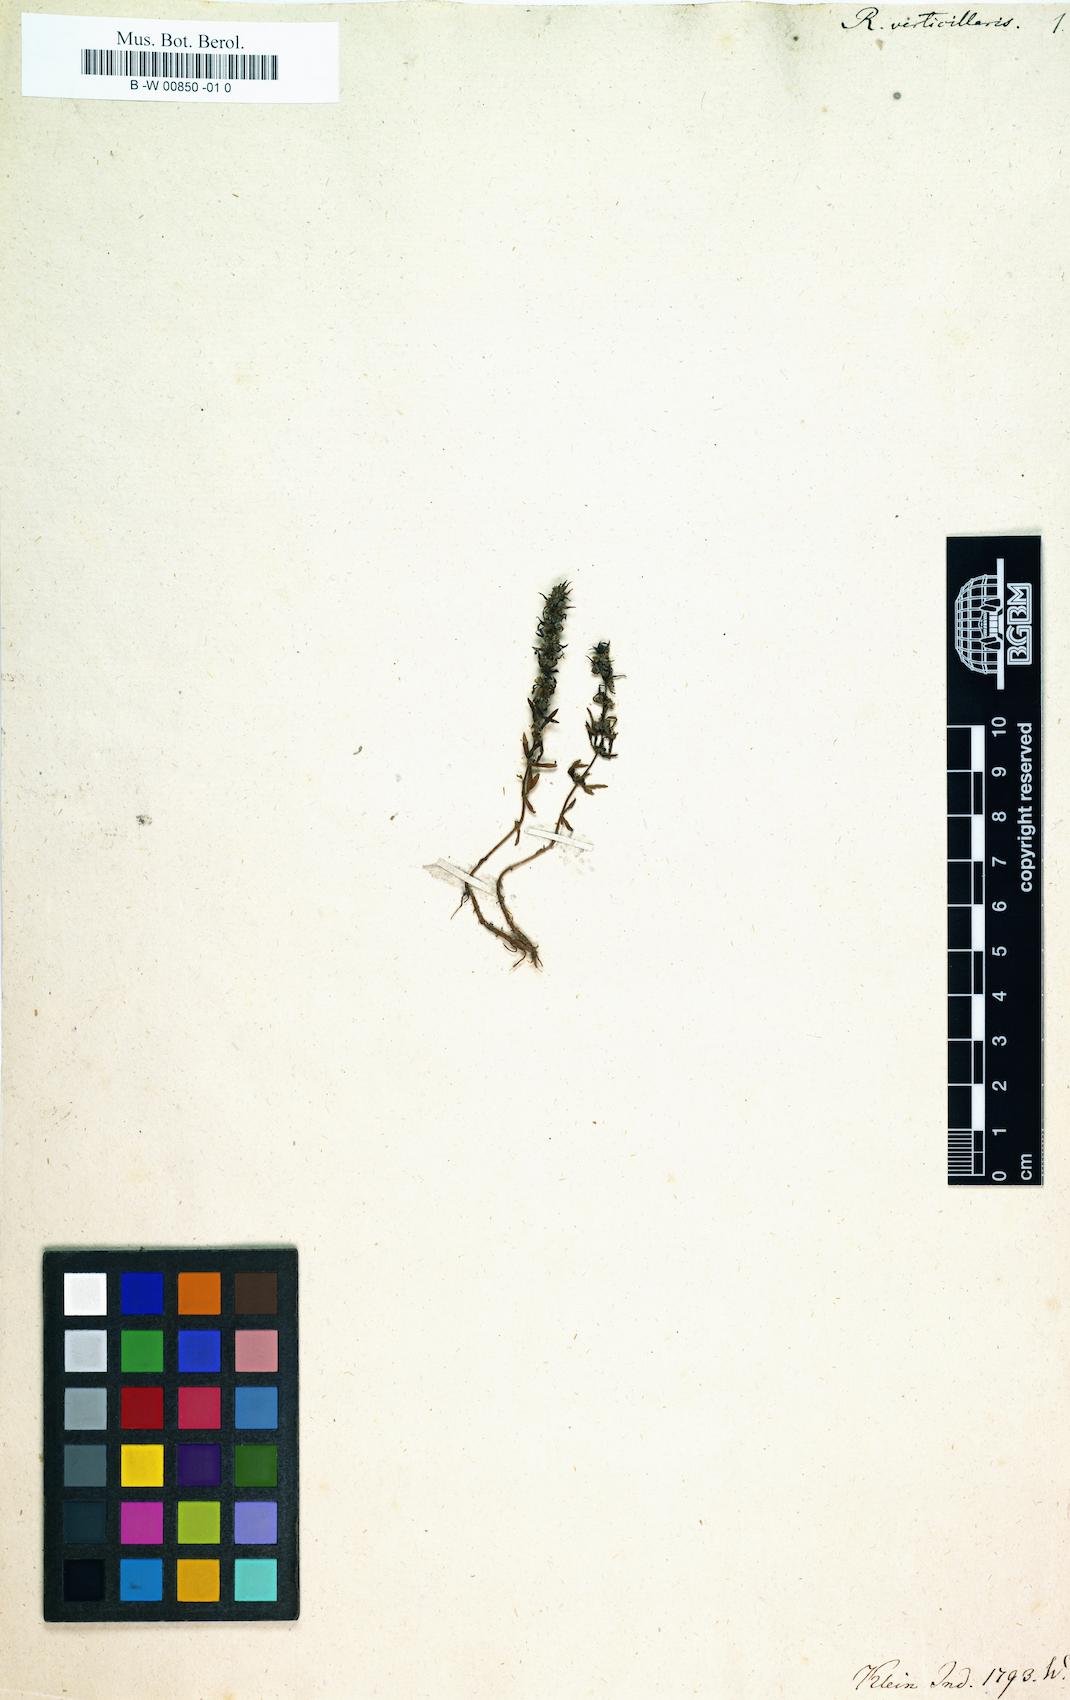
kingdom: Plantae
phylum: Tracheophyta
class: Magnoliopsida
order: Myrtales
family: Lythraceae
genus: Rotala
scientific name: Rotala verticillaris
